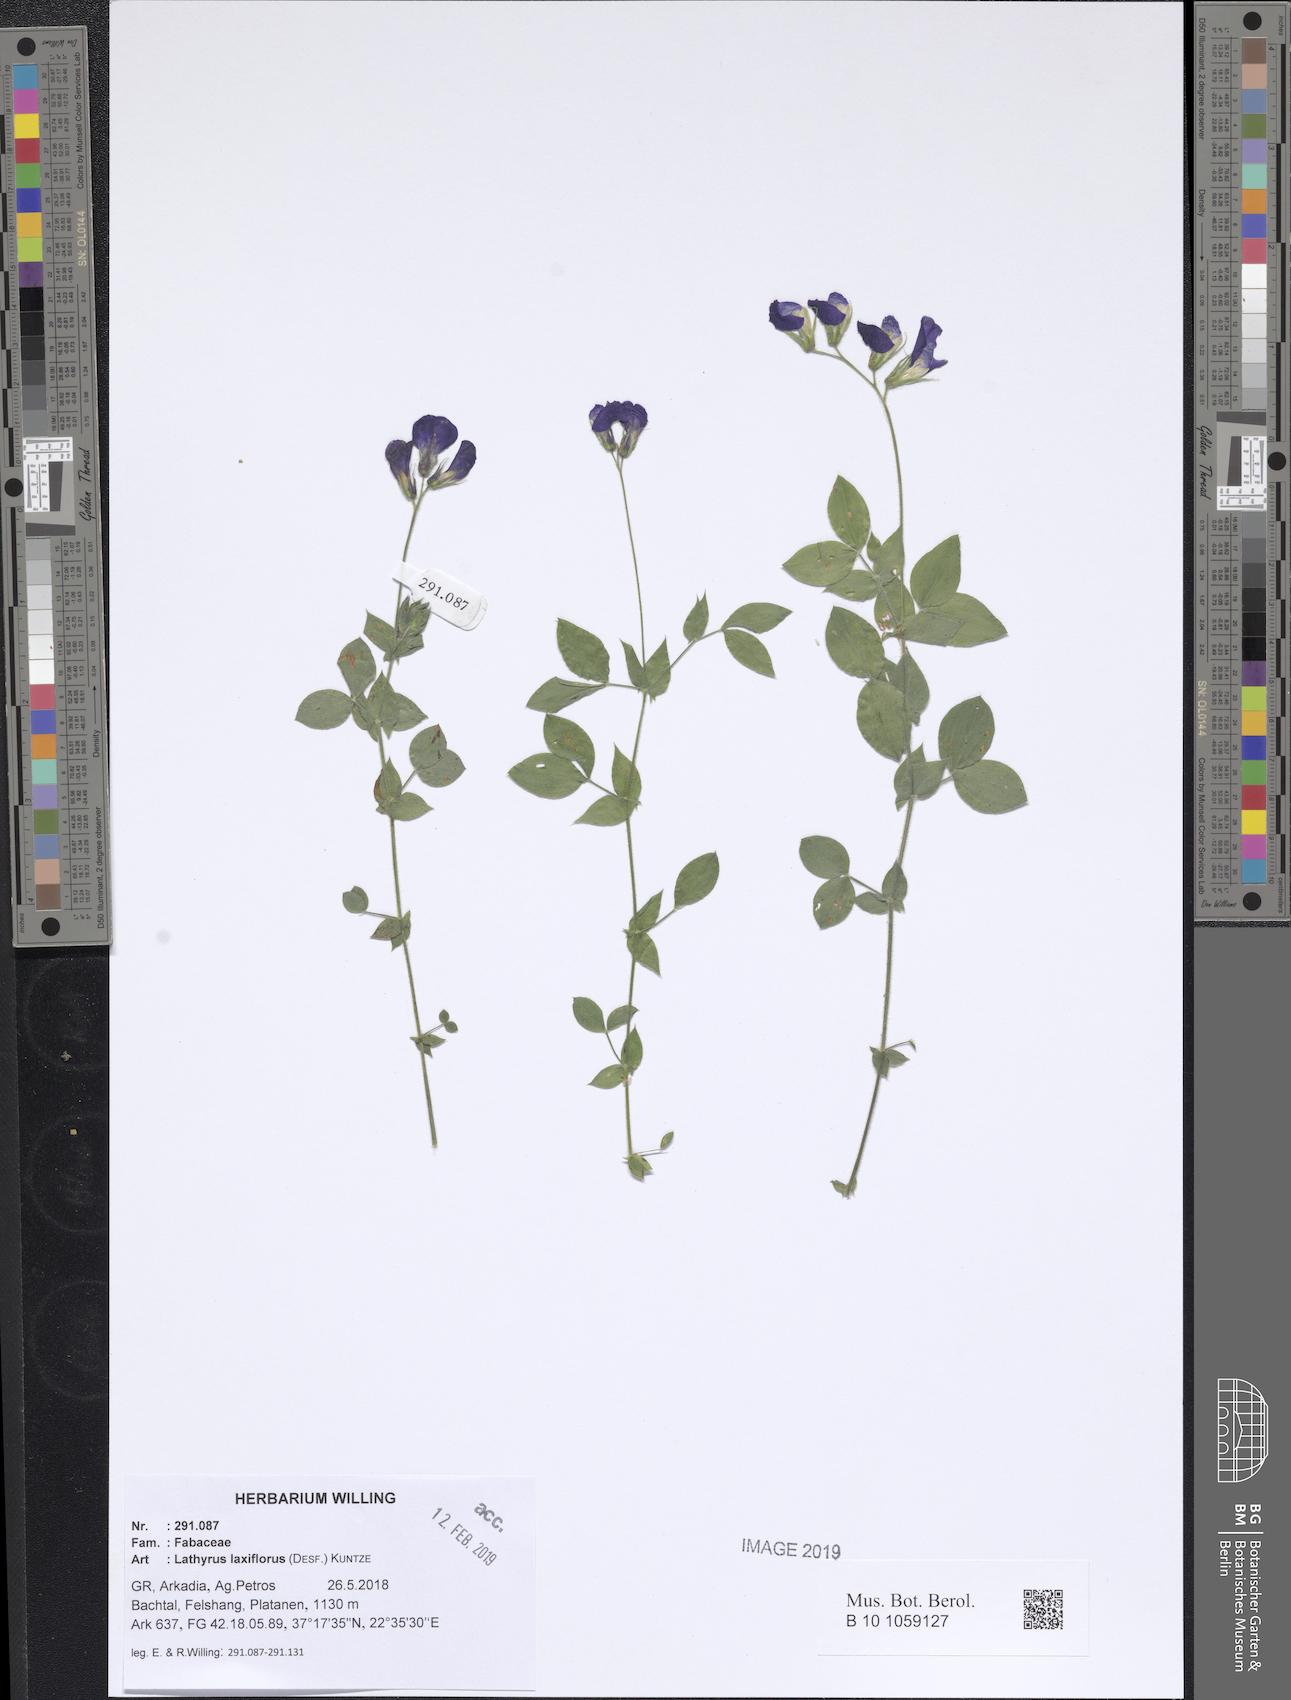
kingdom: Plantae
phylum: Tracheophyta
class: Magnoliopsida
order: Fabales
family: Fabaceae
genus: Lathyrus
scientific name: Lathyrus laxiflorus
